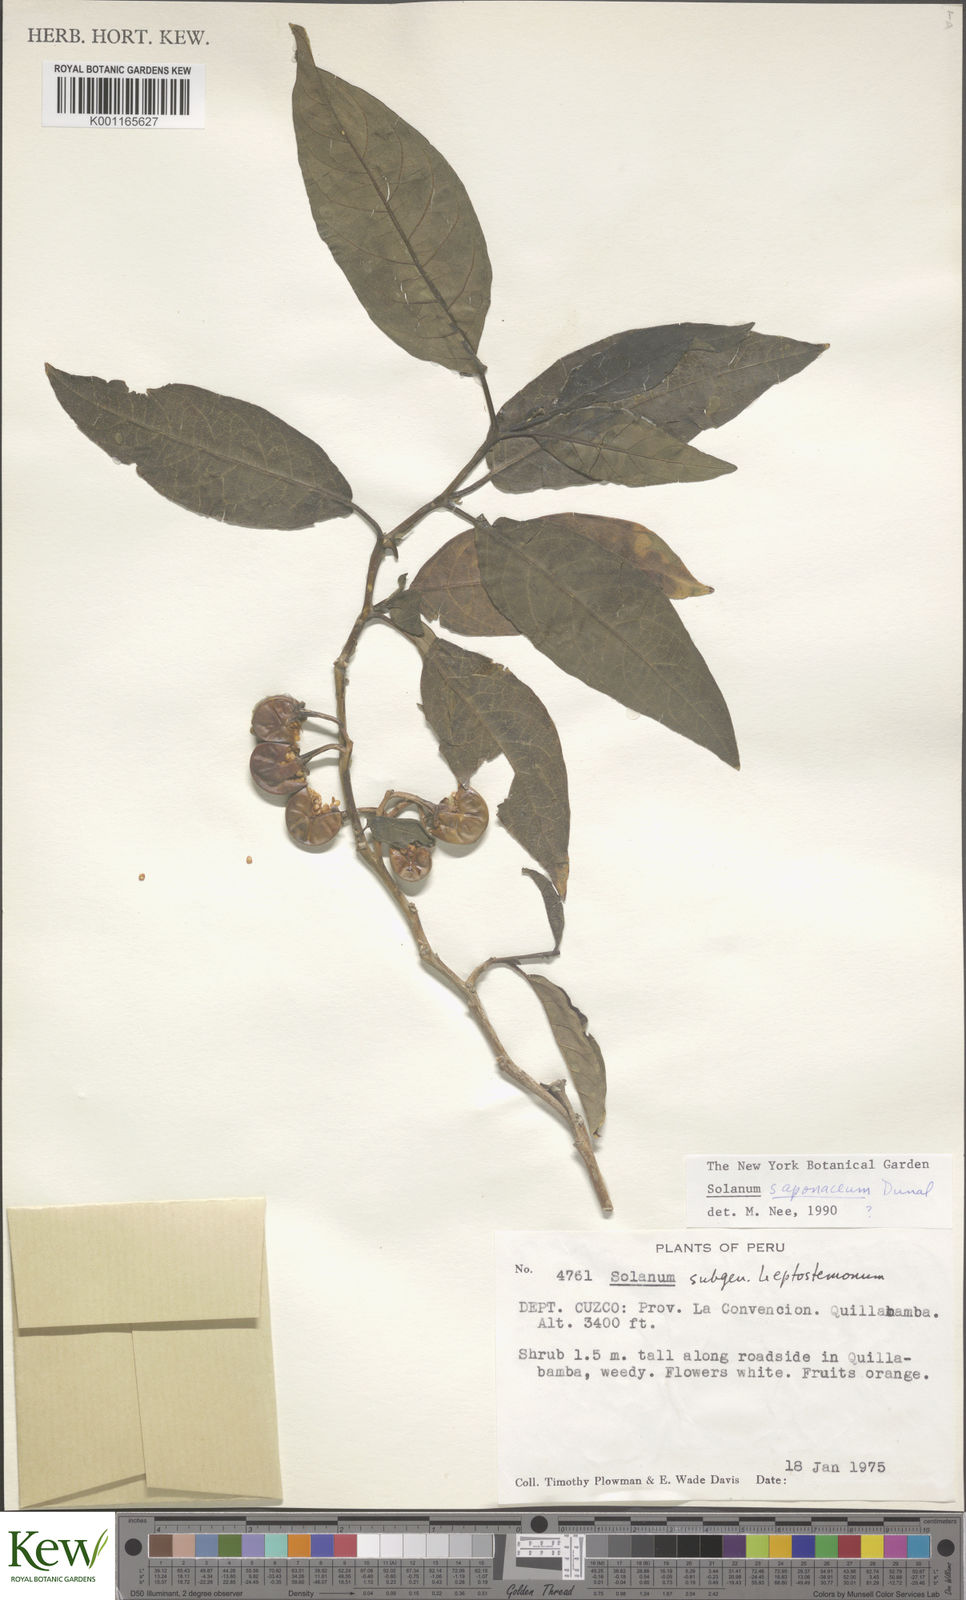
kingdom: Plantae
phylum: Tracheophyta
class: Magnoliopsida
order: Solanales
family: Solanaceae
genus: Solanum
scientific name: Solanum saponaceum
